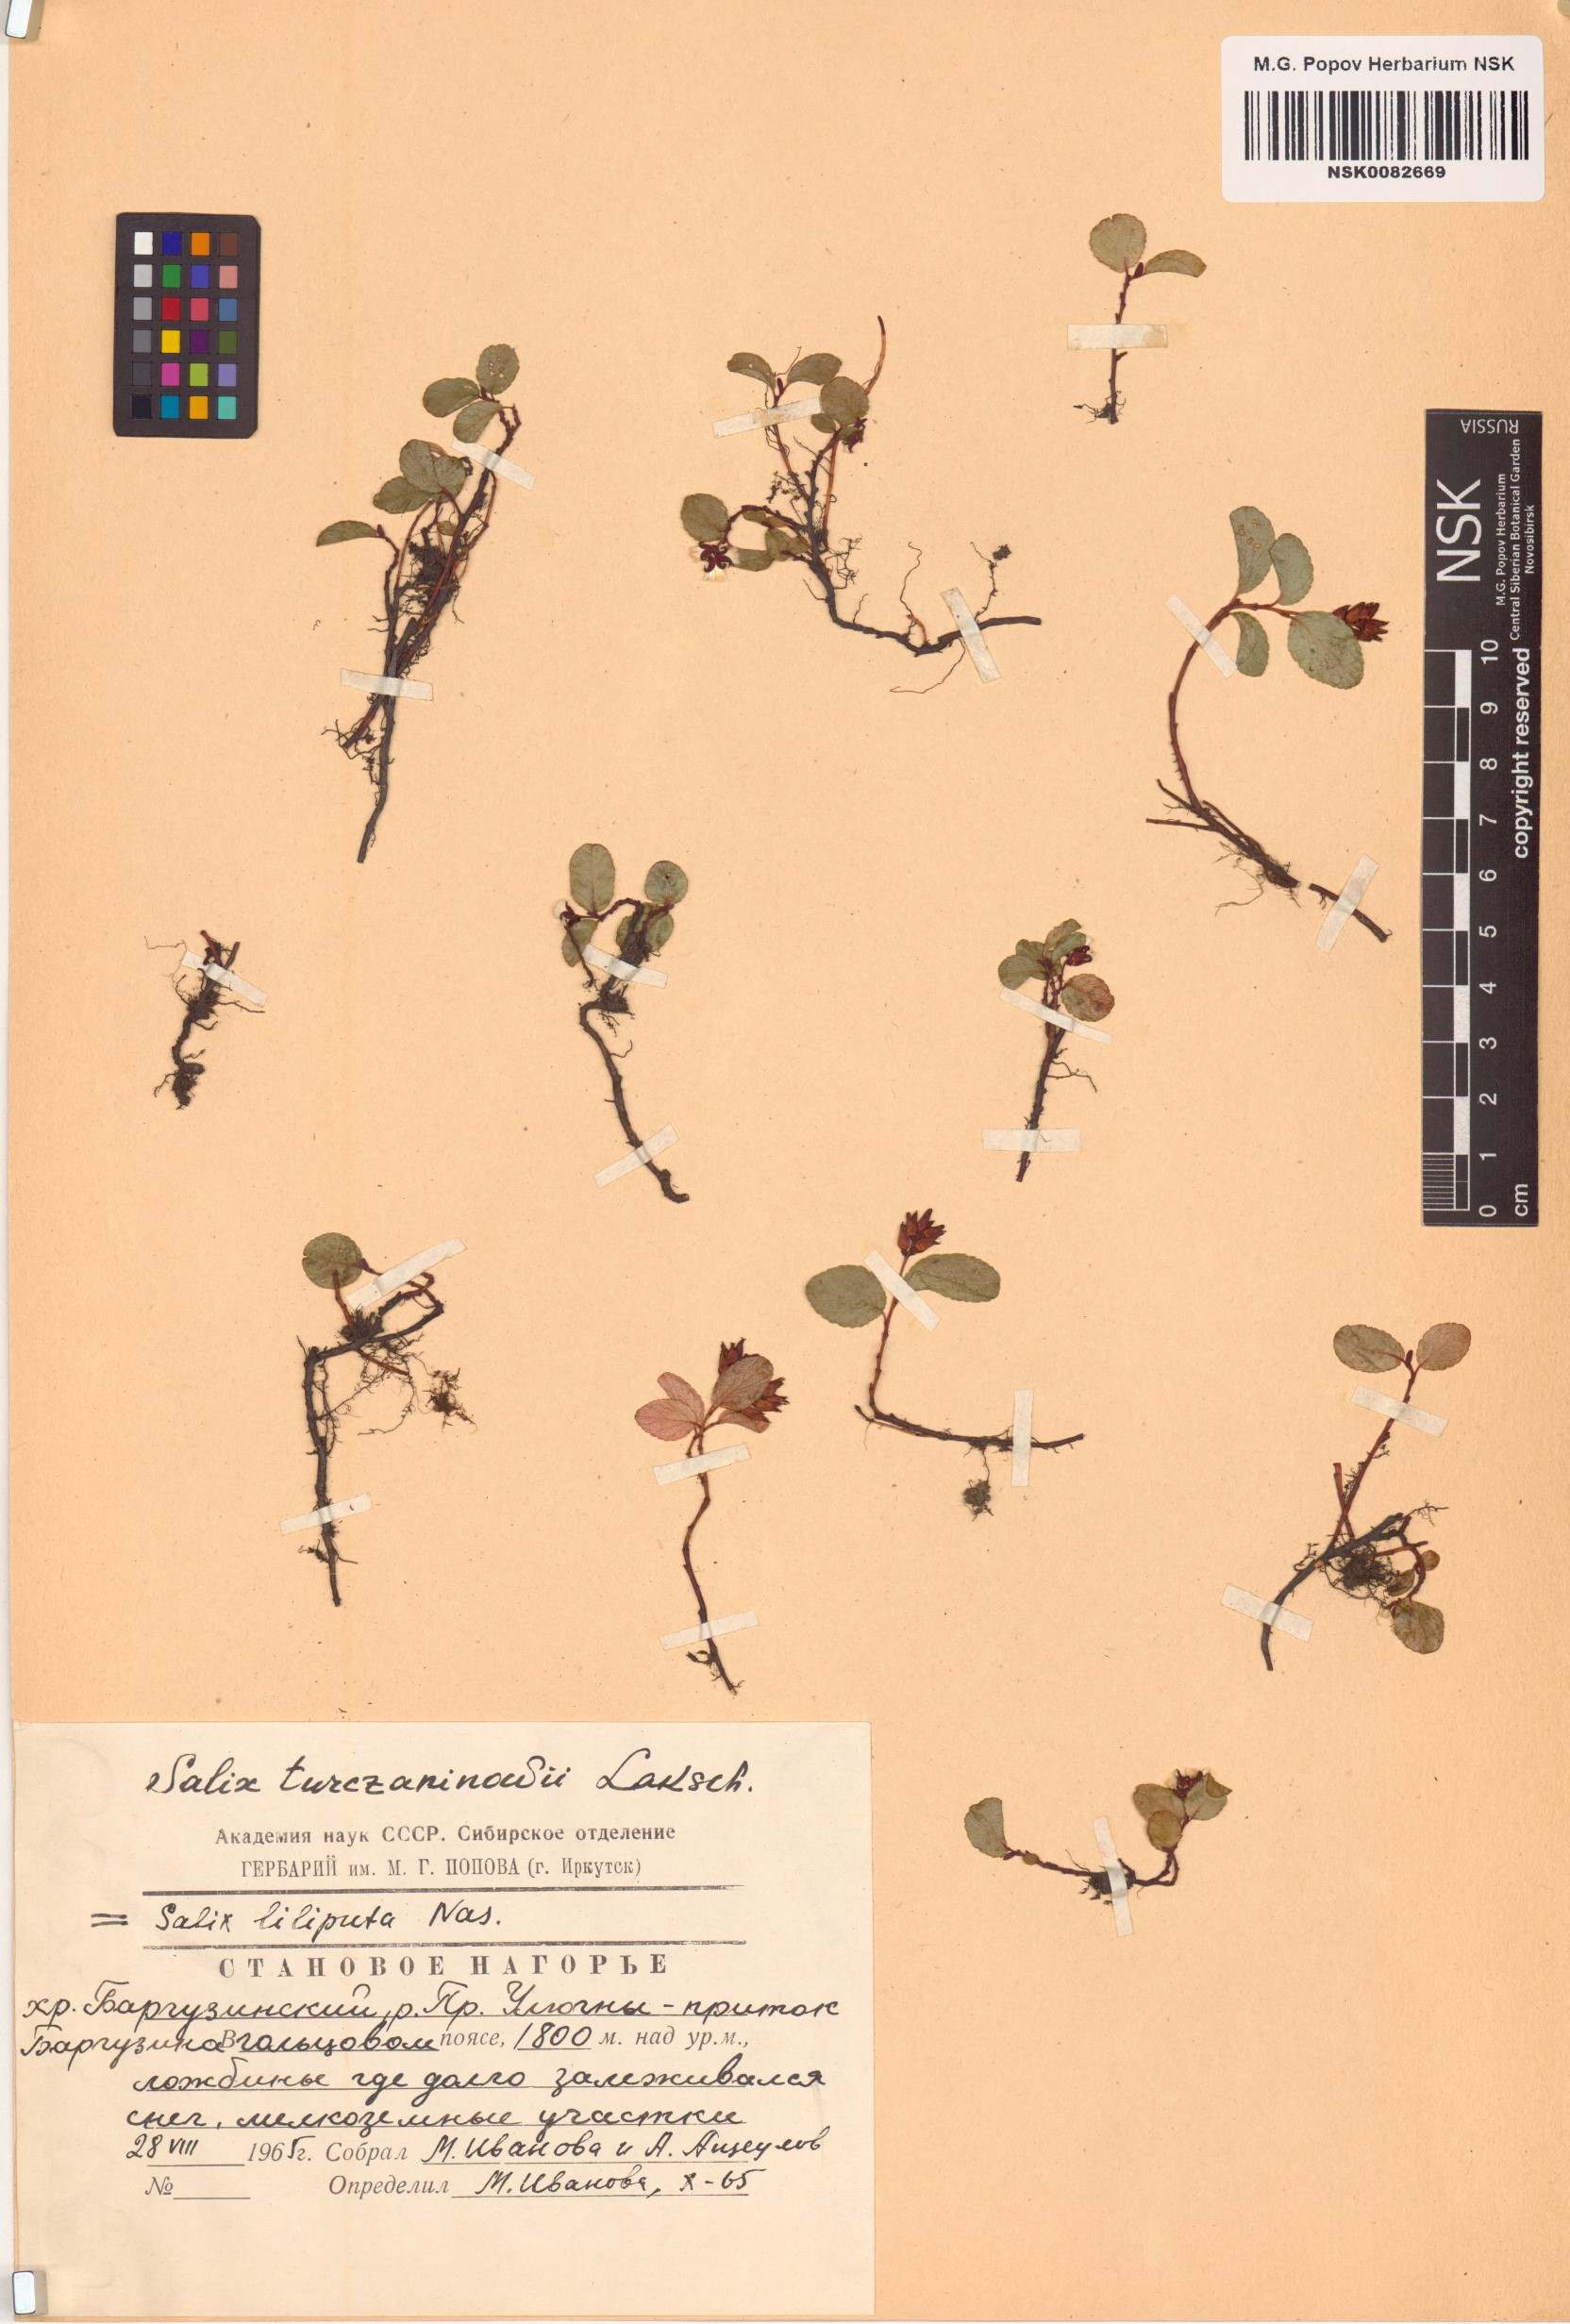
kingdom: Plantae
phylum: Tracheophyta
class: Magnoliopsida
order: Malpighiales
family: Salicaceae
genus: Salix
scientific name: Salix turczaninowii
